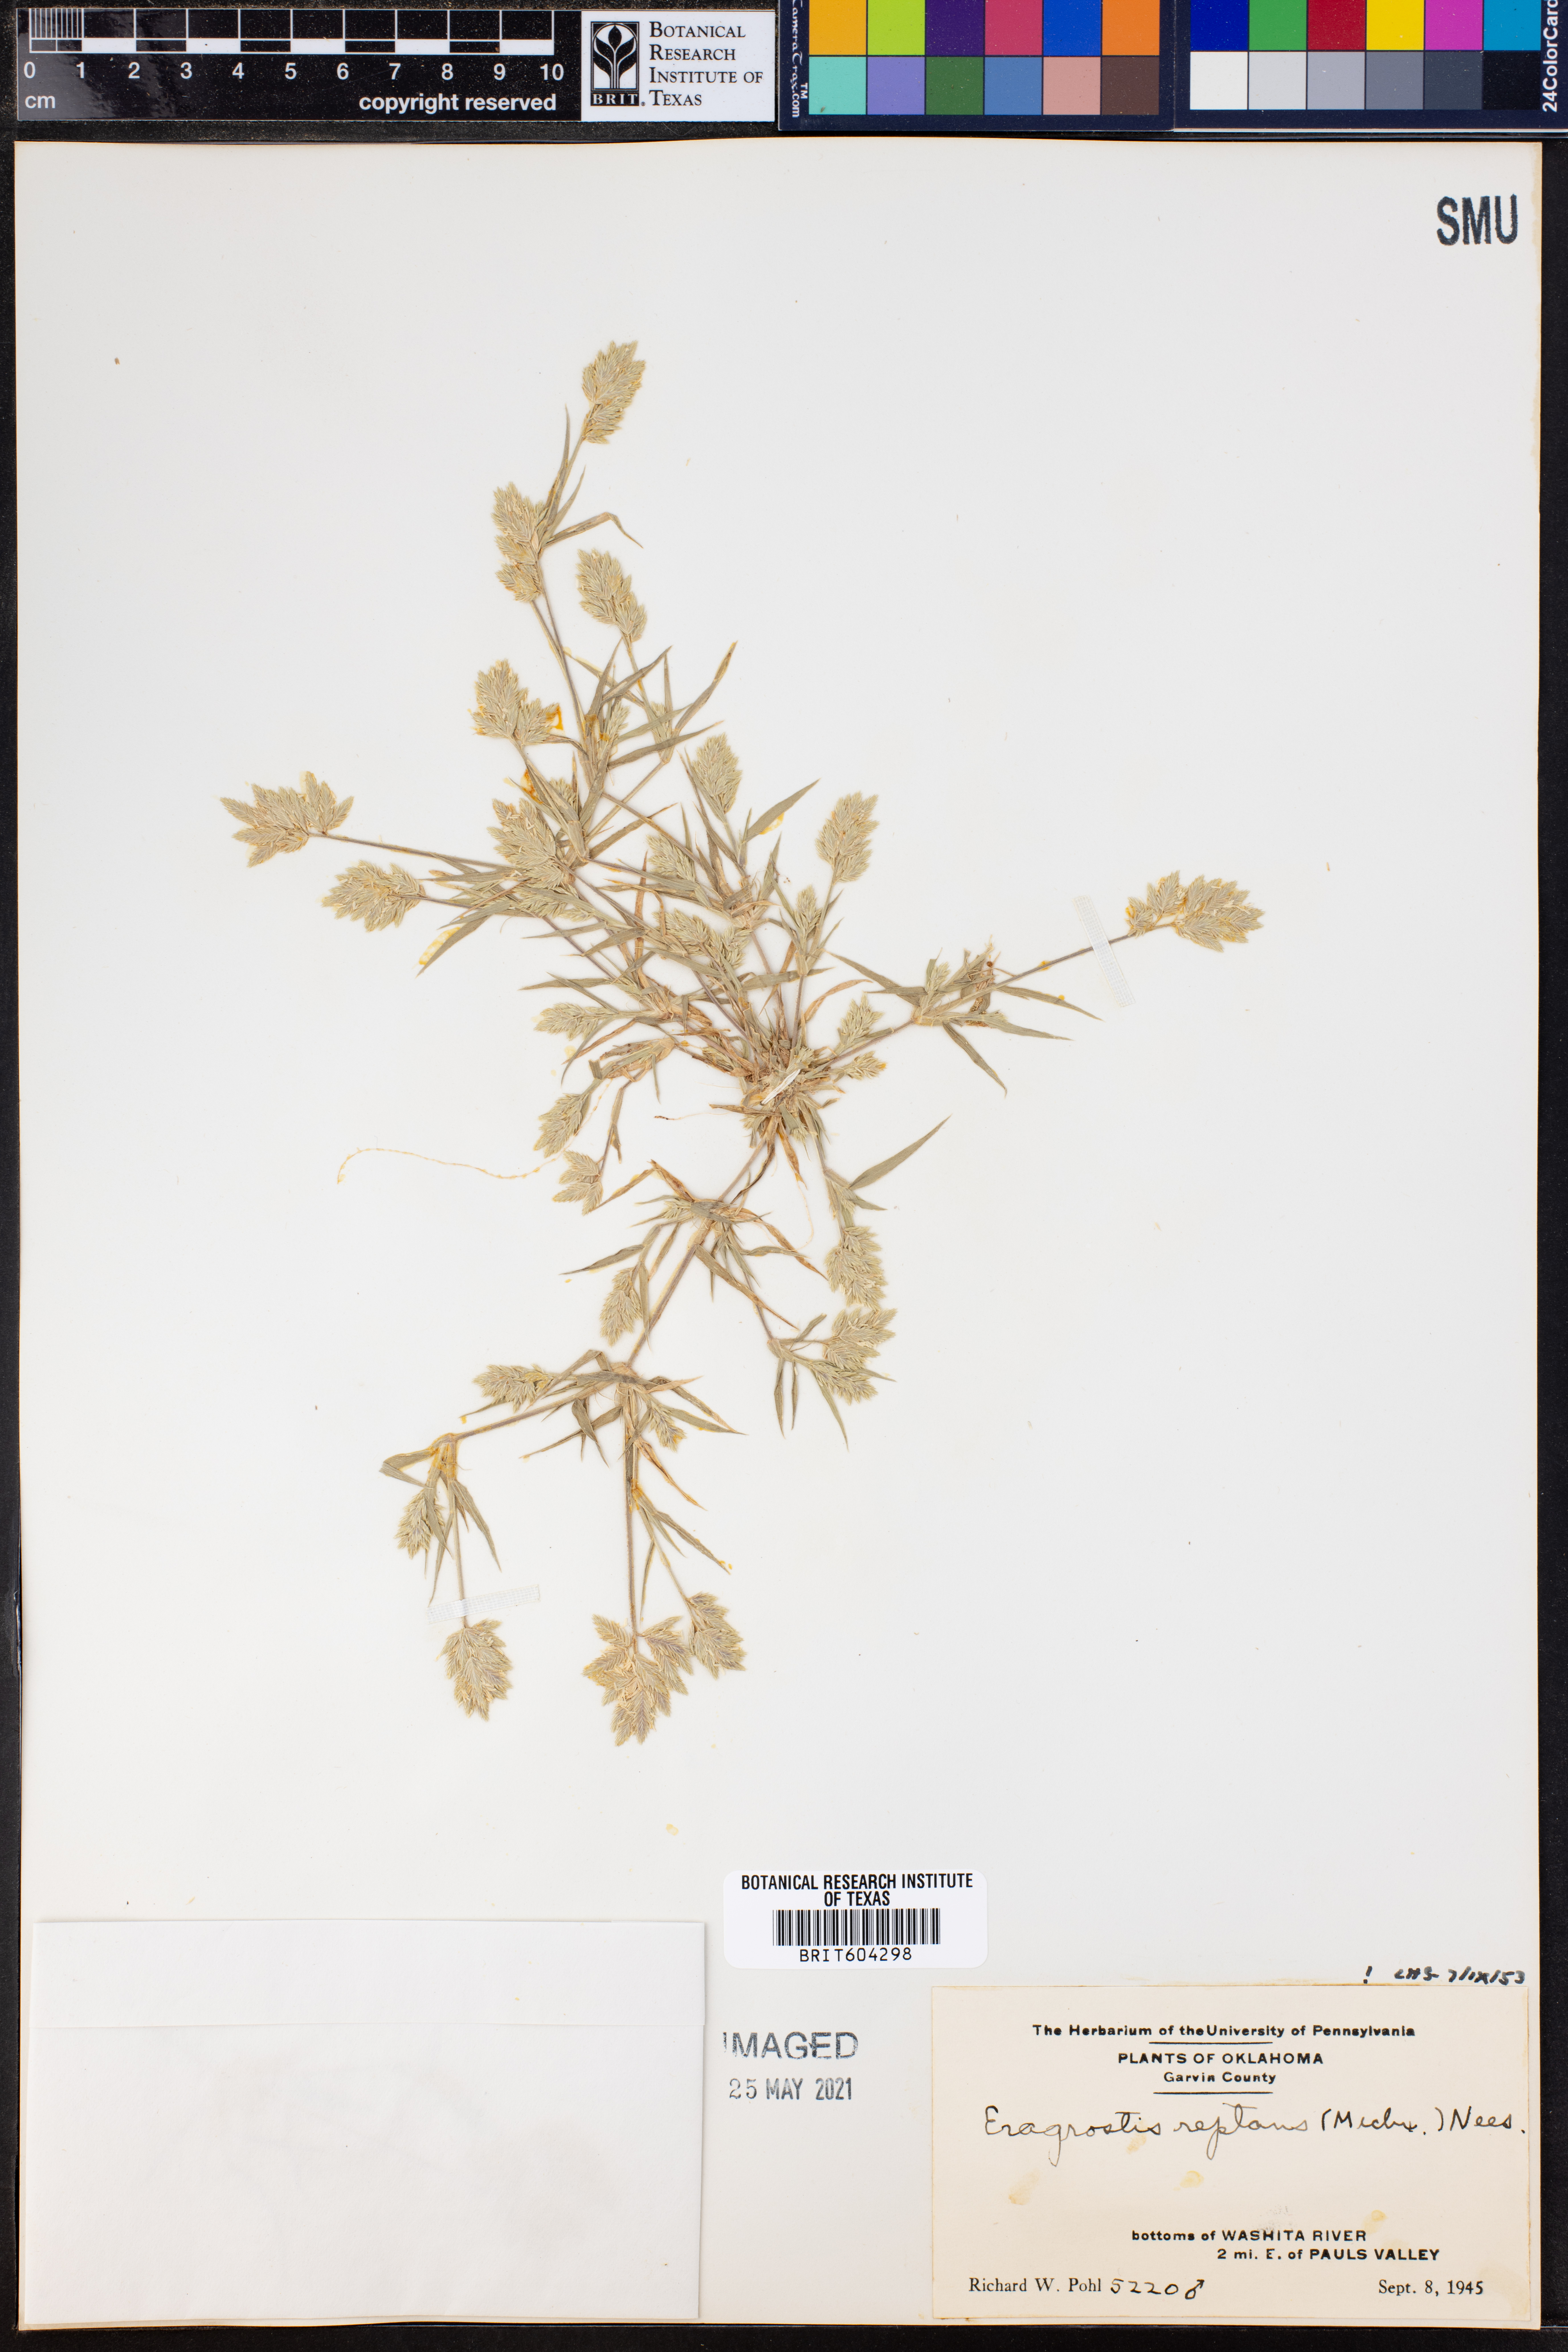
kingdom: Plantae
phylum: Tracheophyta
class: Liliopsida
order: Poales
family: Poaceae
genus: Eragrostis
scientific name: Eragrostis reptans
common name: Creeping love grass
